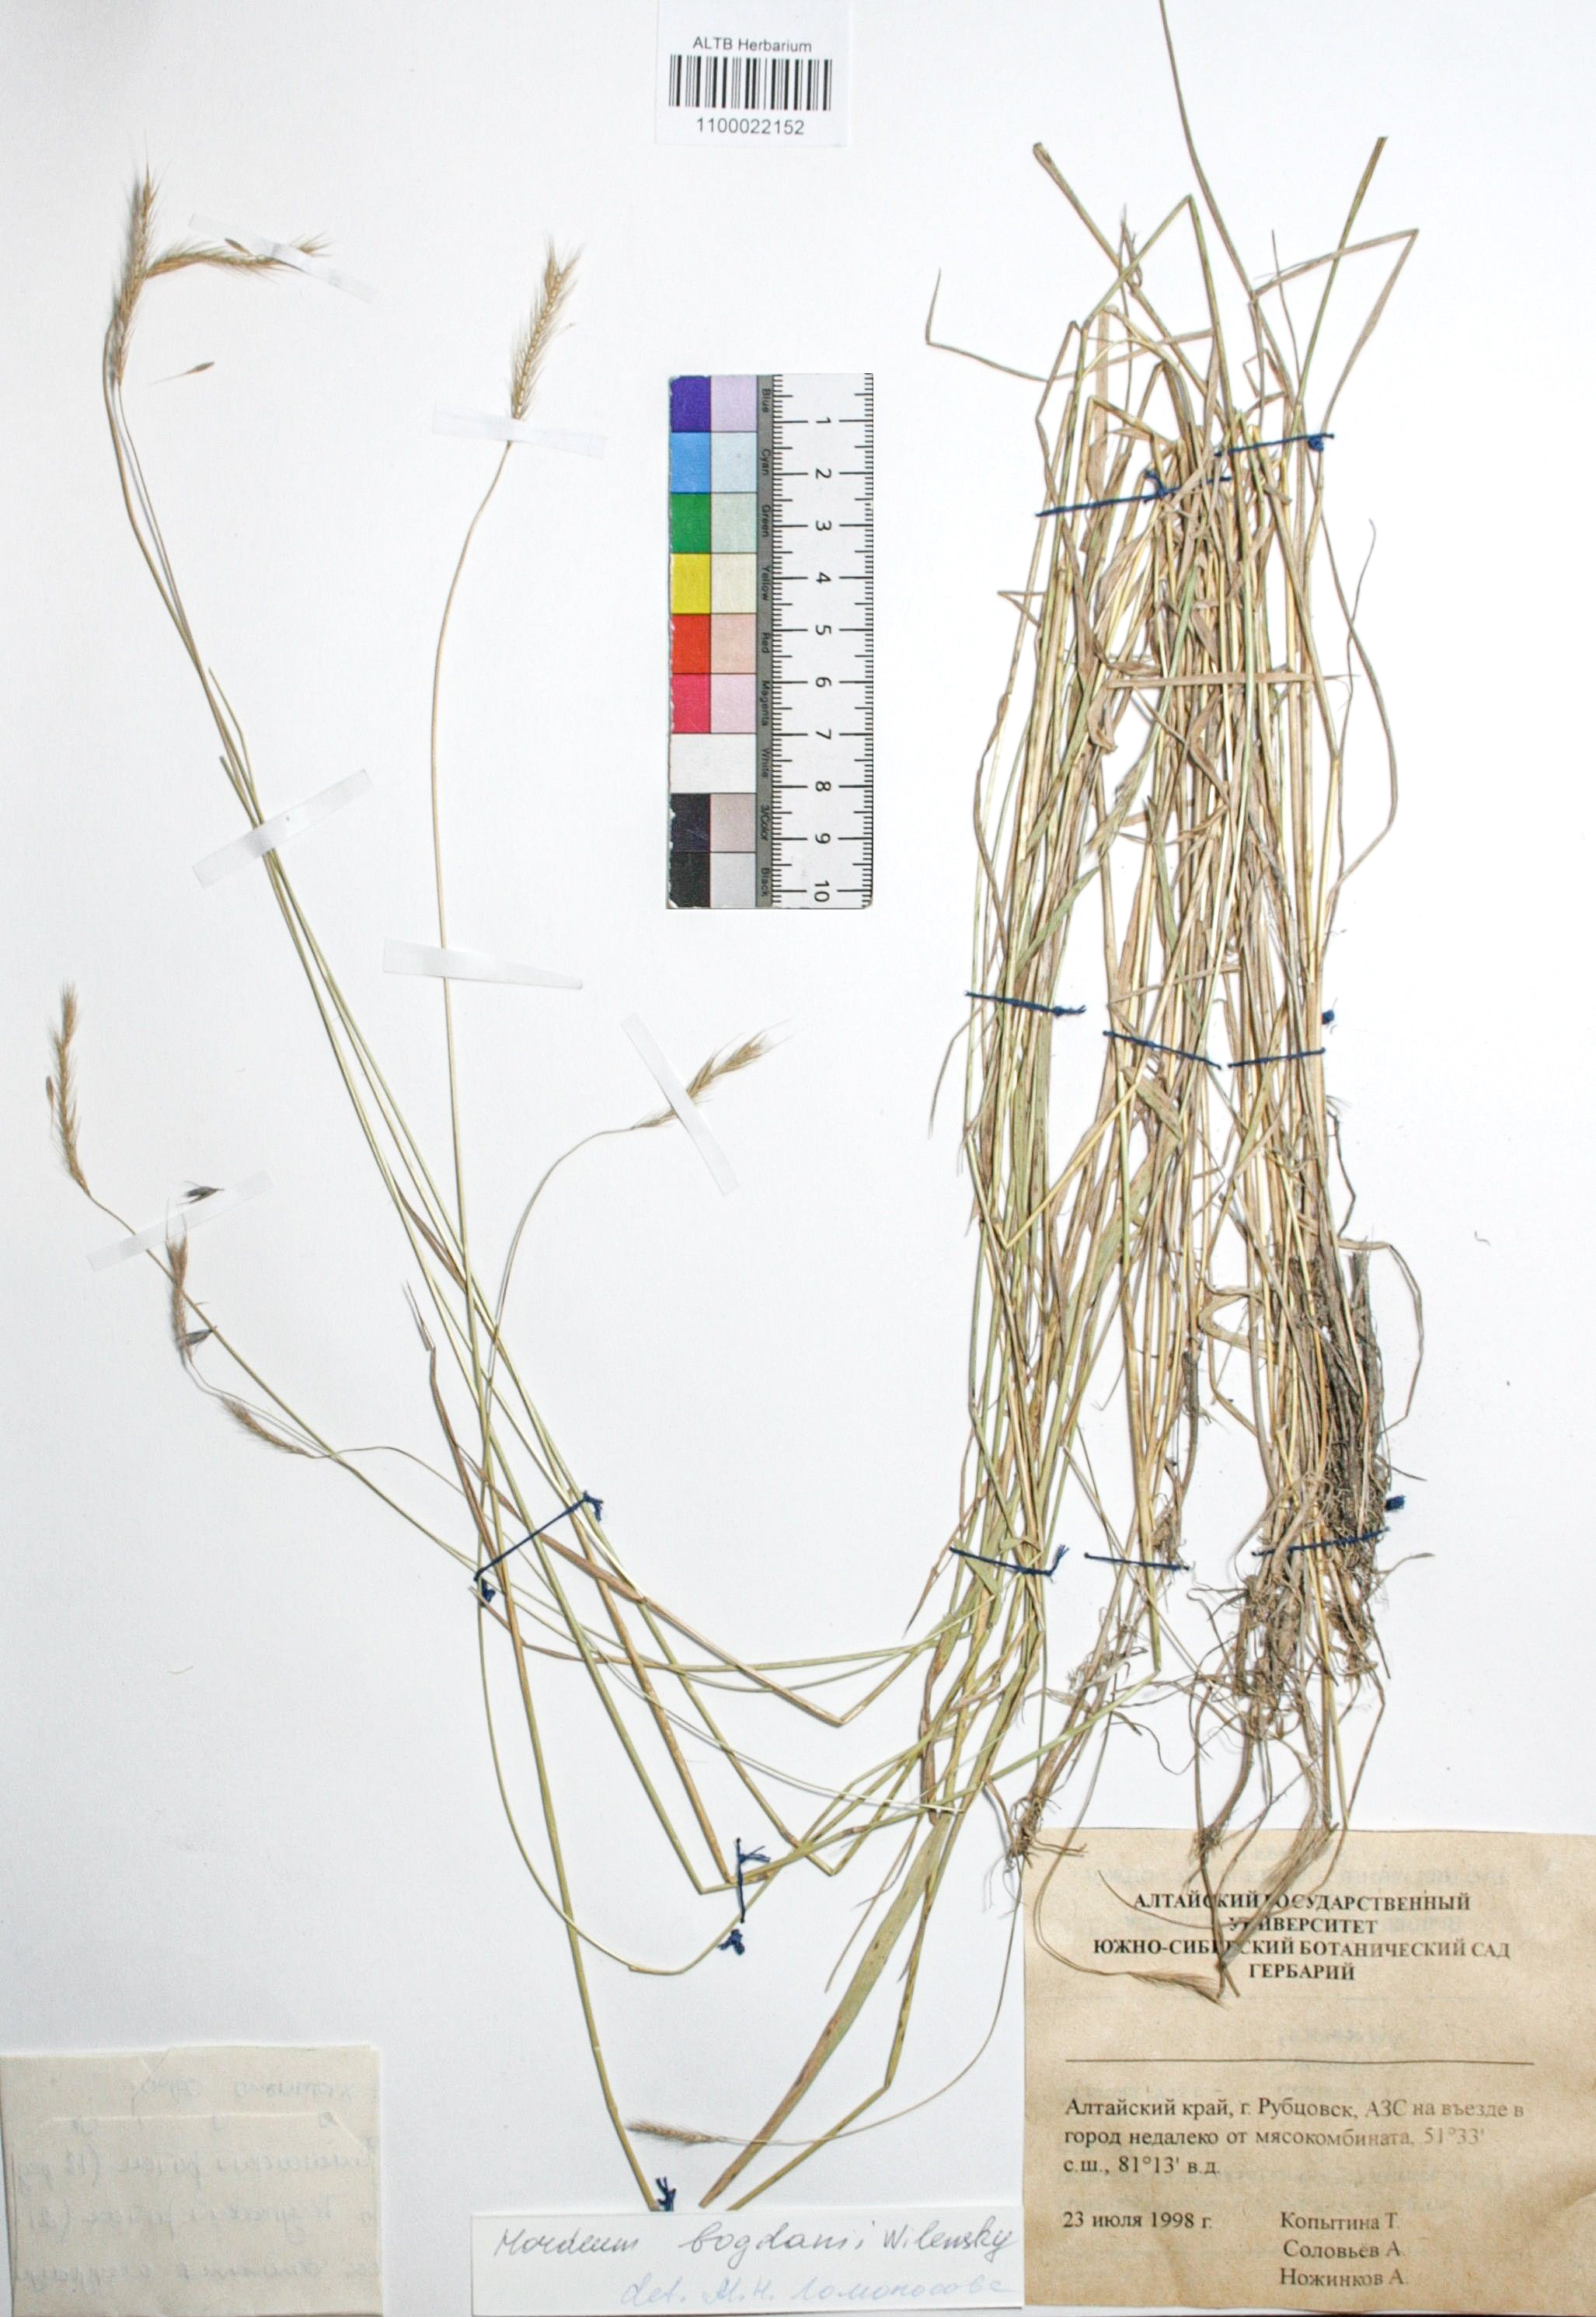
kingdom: Plantae
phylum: Tracheophyta
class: Liliopsida
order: Poales
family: Poaceae
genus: Hordeum
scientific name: Hordeum bogdanii
